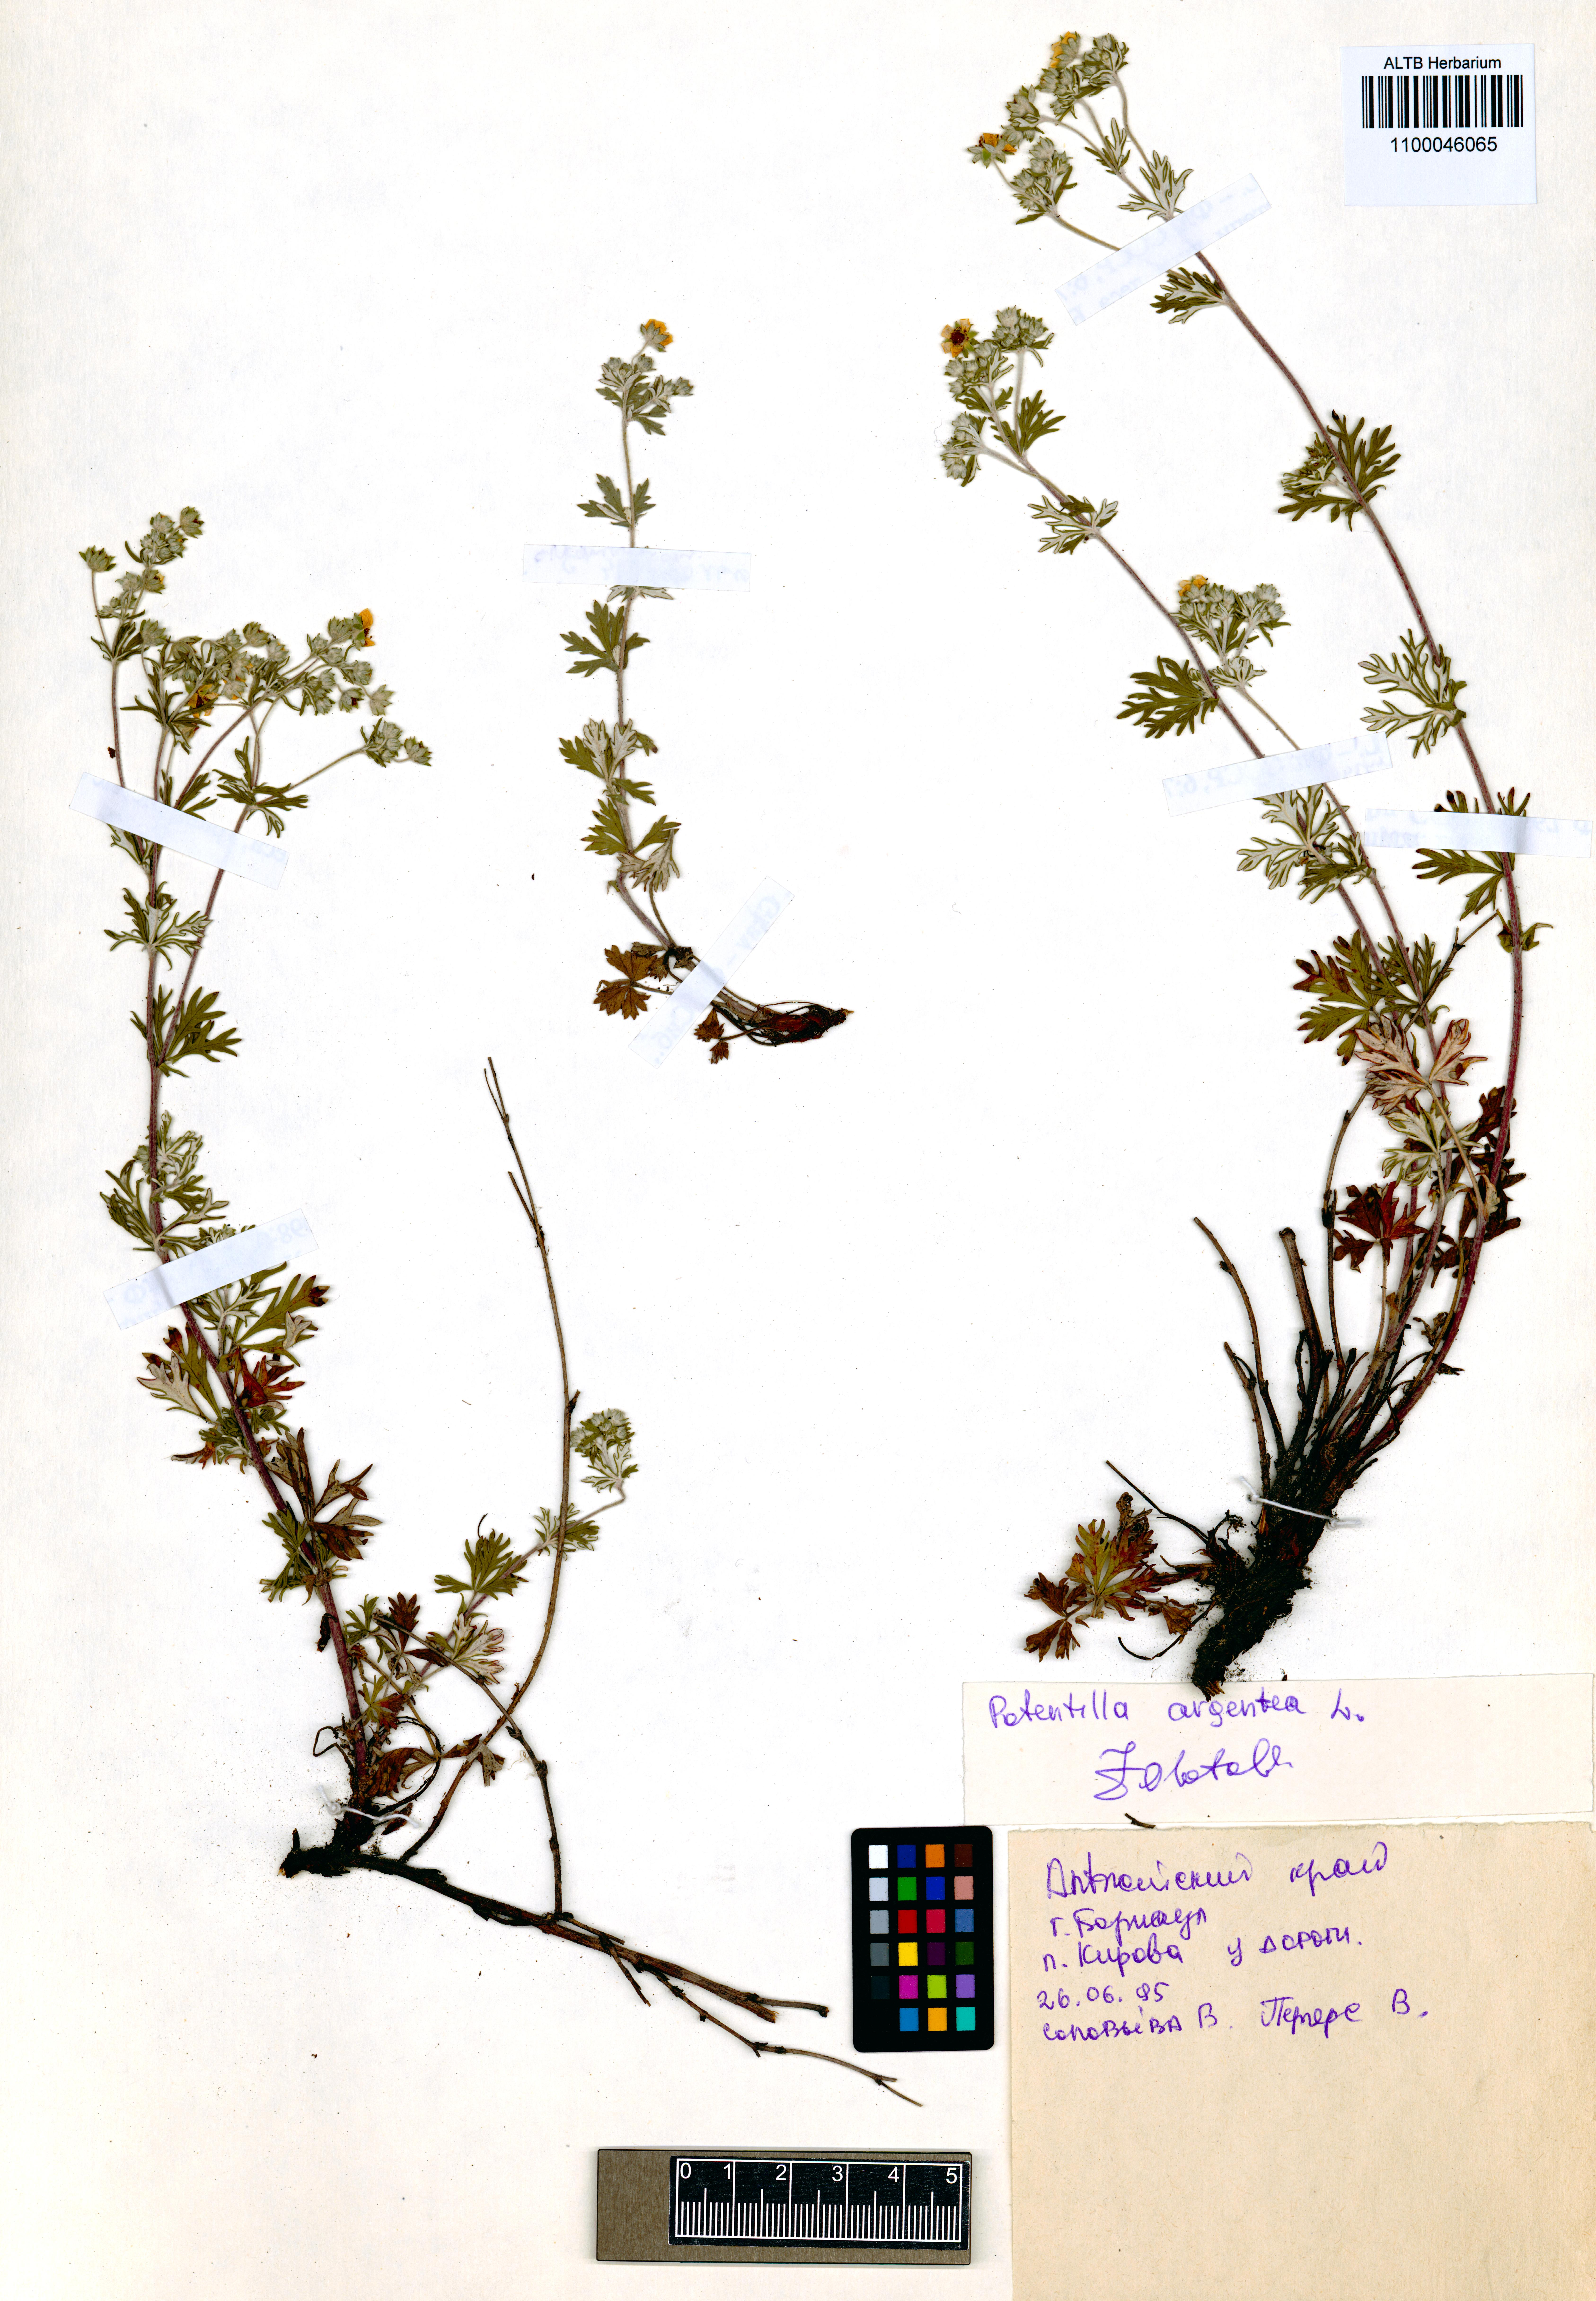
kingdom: Plantae
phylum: Tracheophyta
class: Magnoliopsida
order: Rosales
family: Rosaceae
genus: Potentilla
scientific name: Potentilla argentea
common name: Hoary cinquefoil
